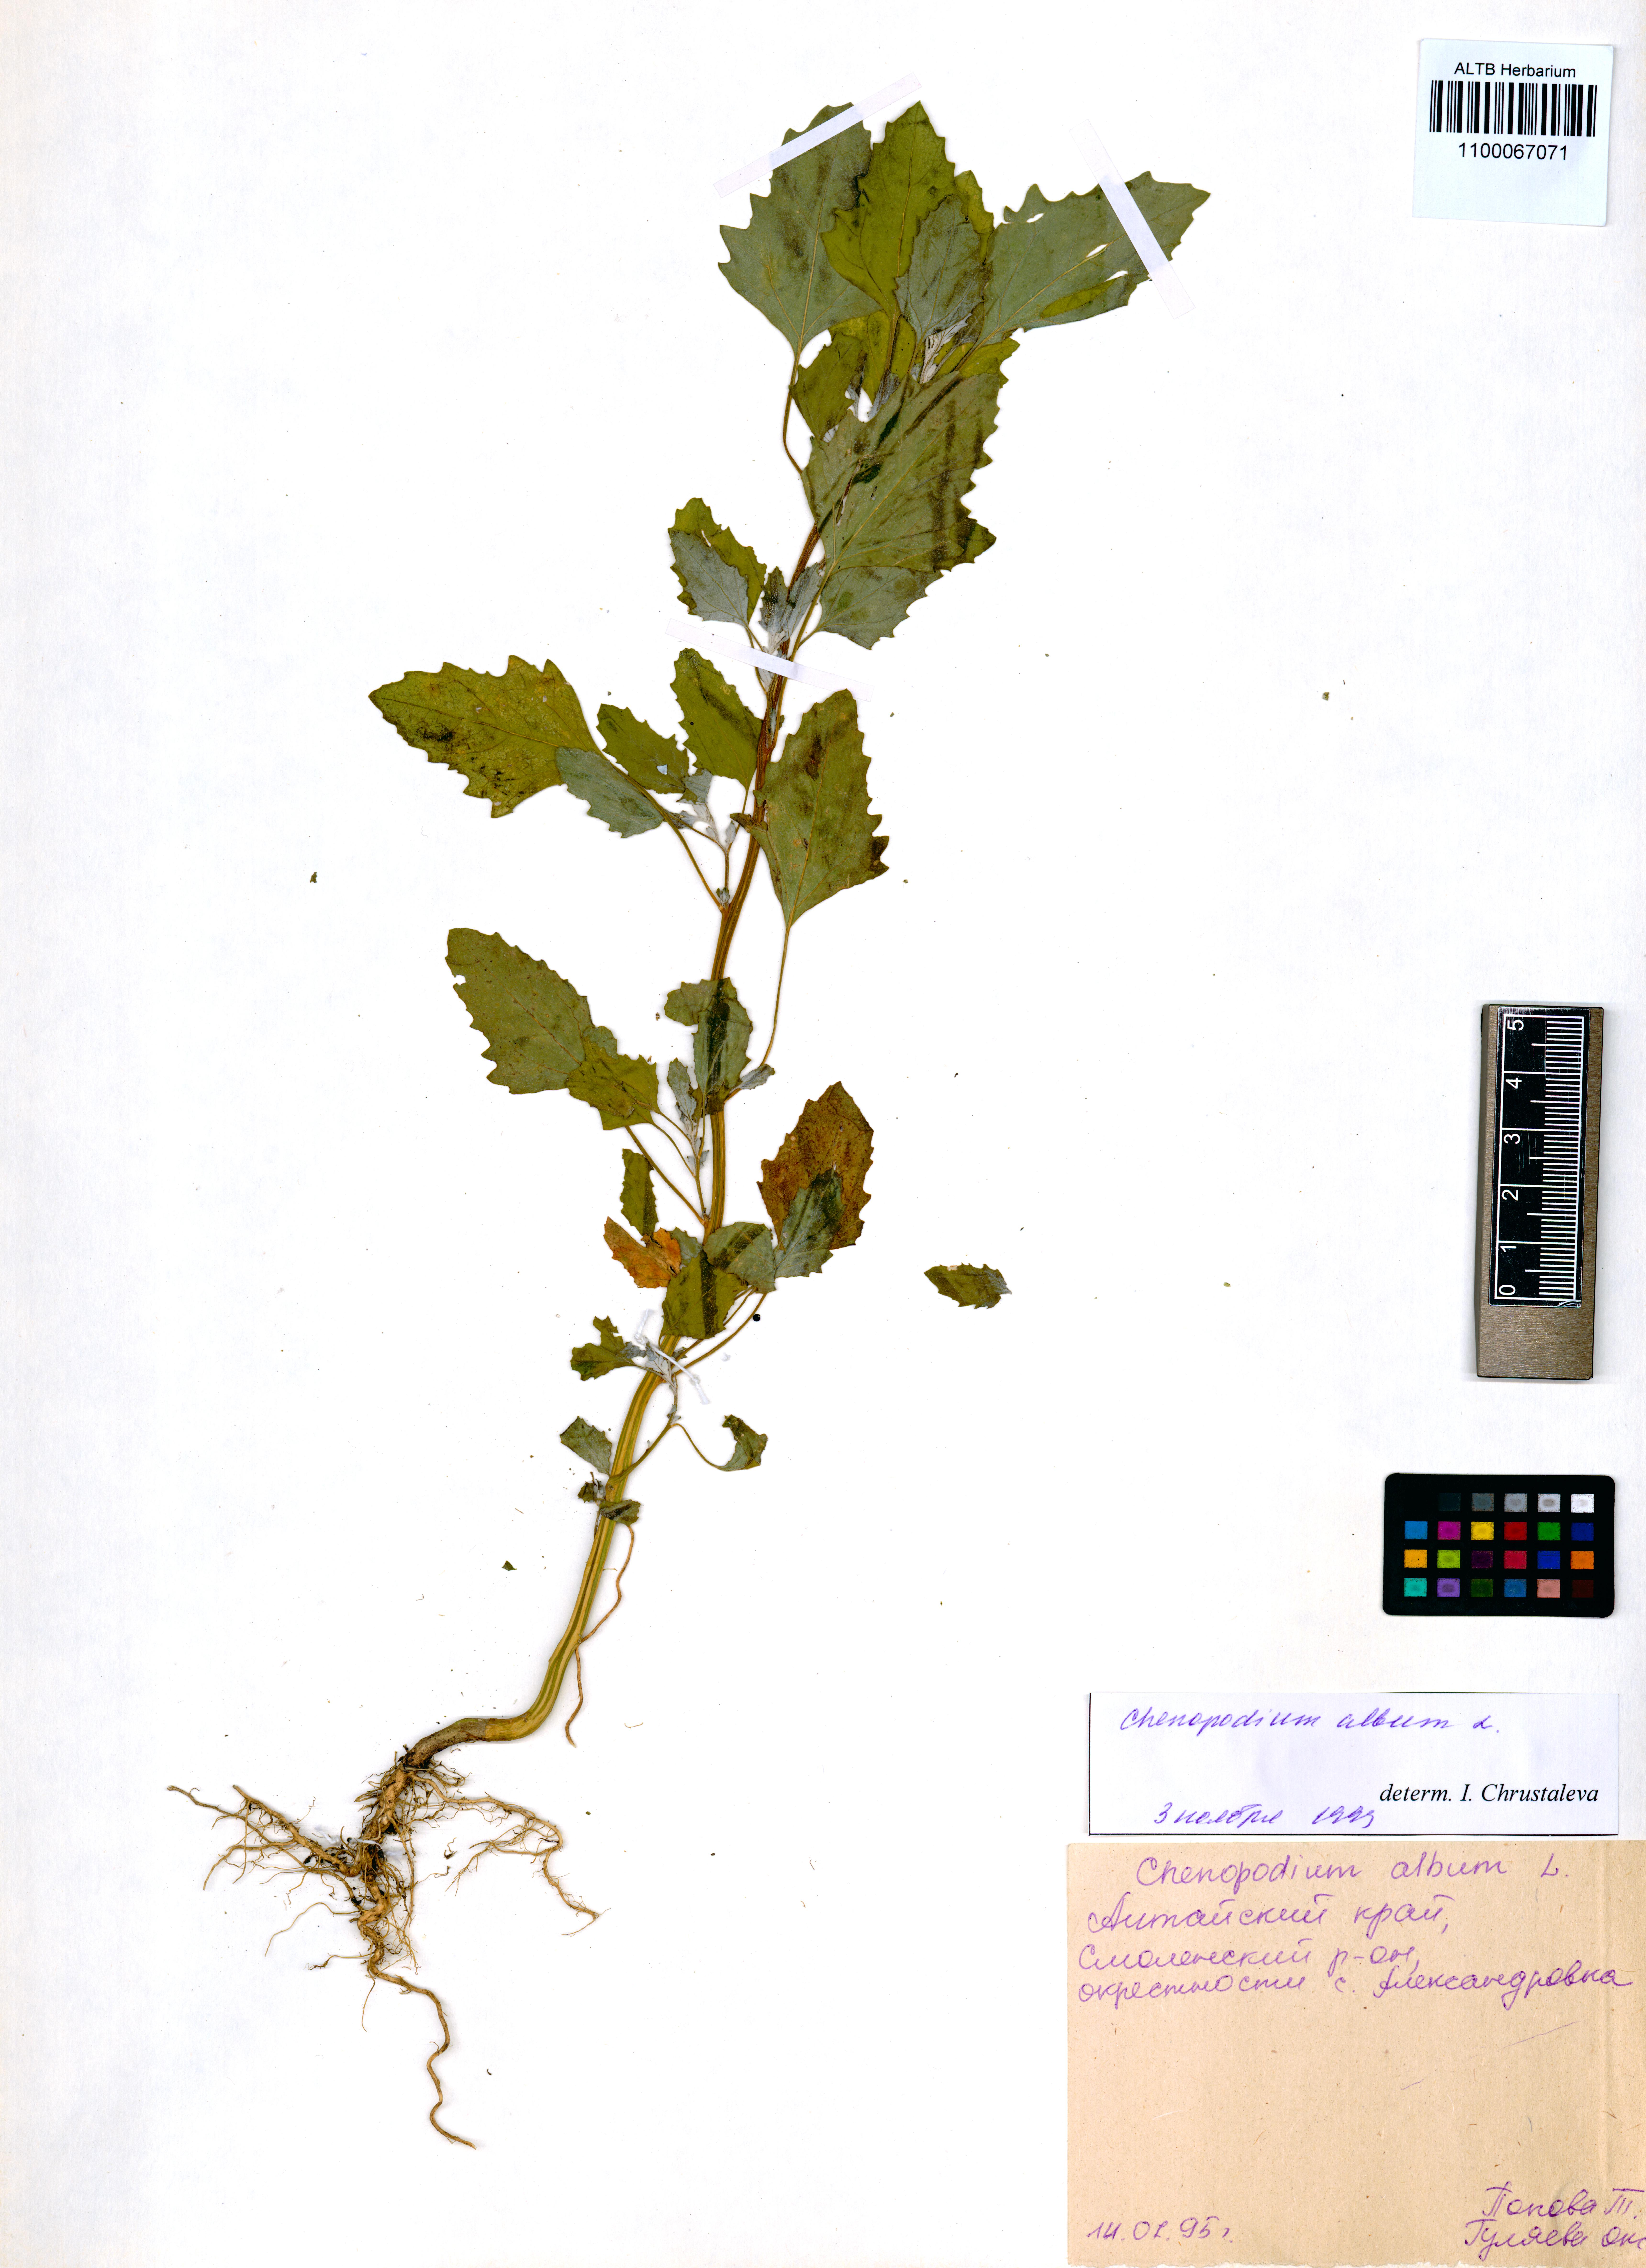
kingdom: Plantae
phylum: Tracheophyta
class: Magnoliopsida
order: Caryophyllales
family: Amaranthaceae
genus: Chenopodium
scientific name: Chenopodium album
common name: Fat-hen
